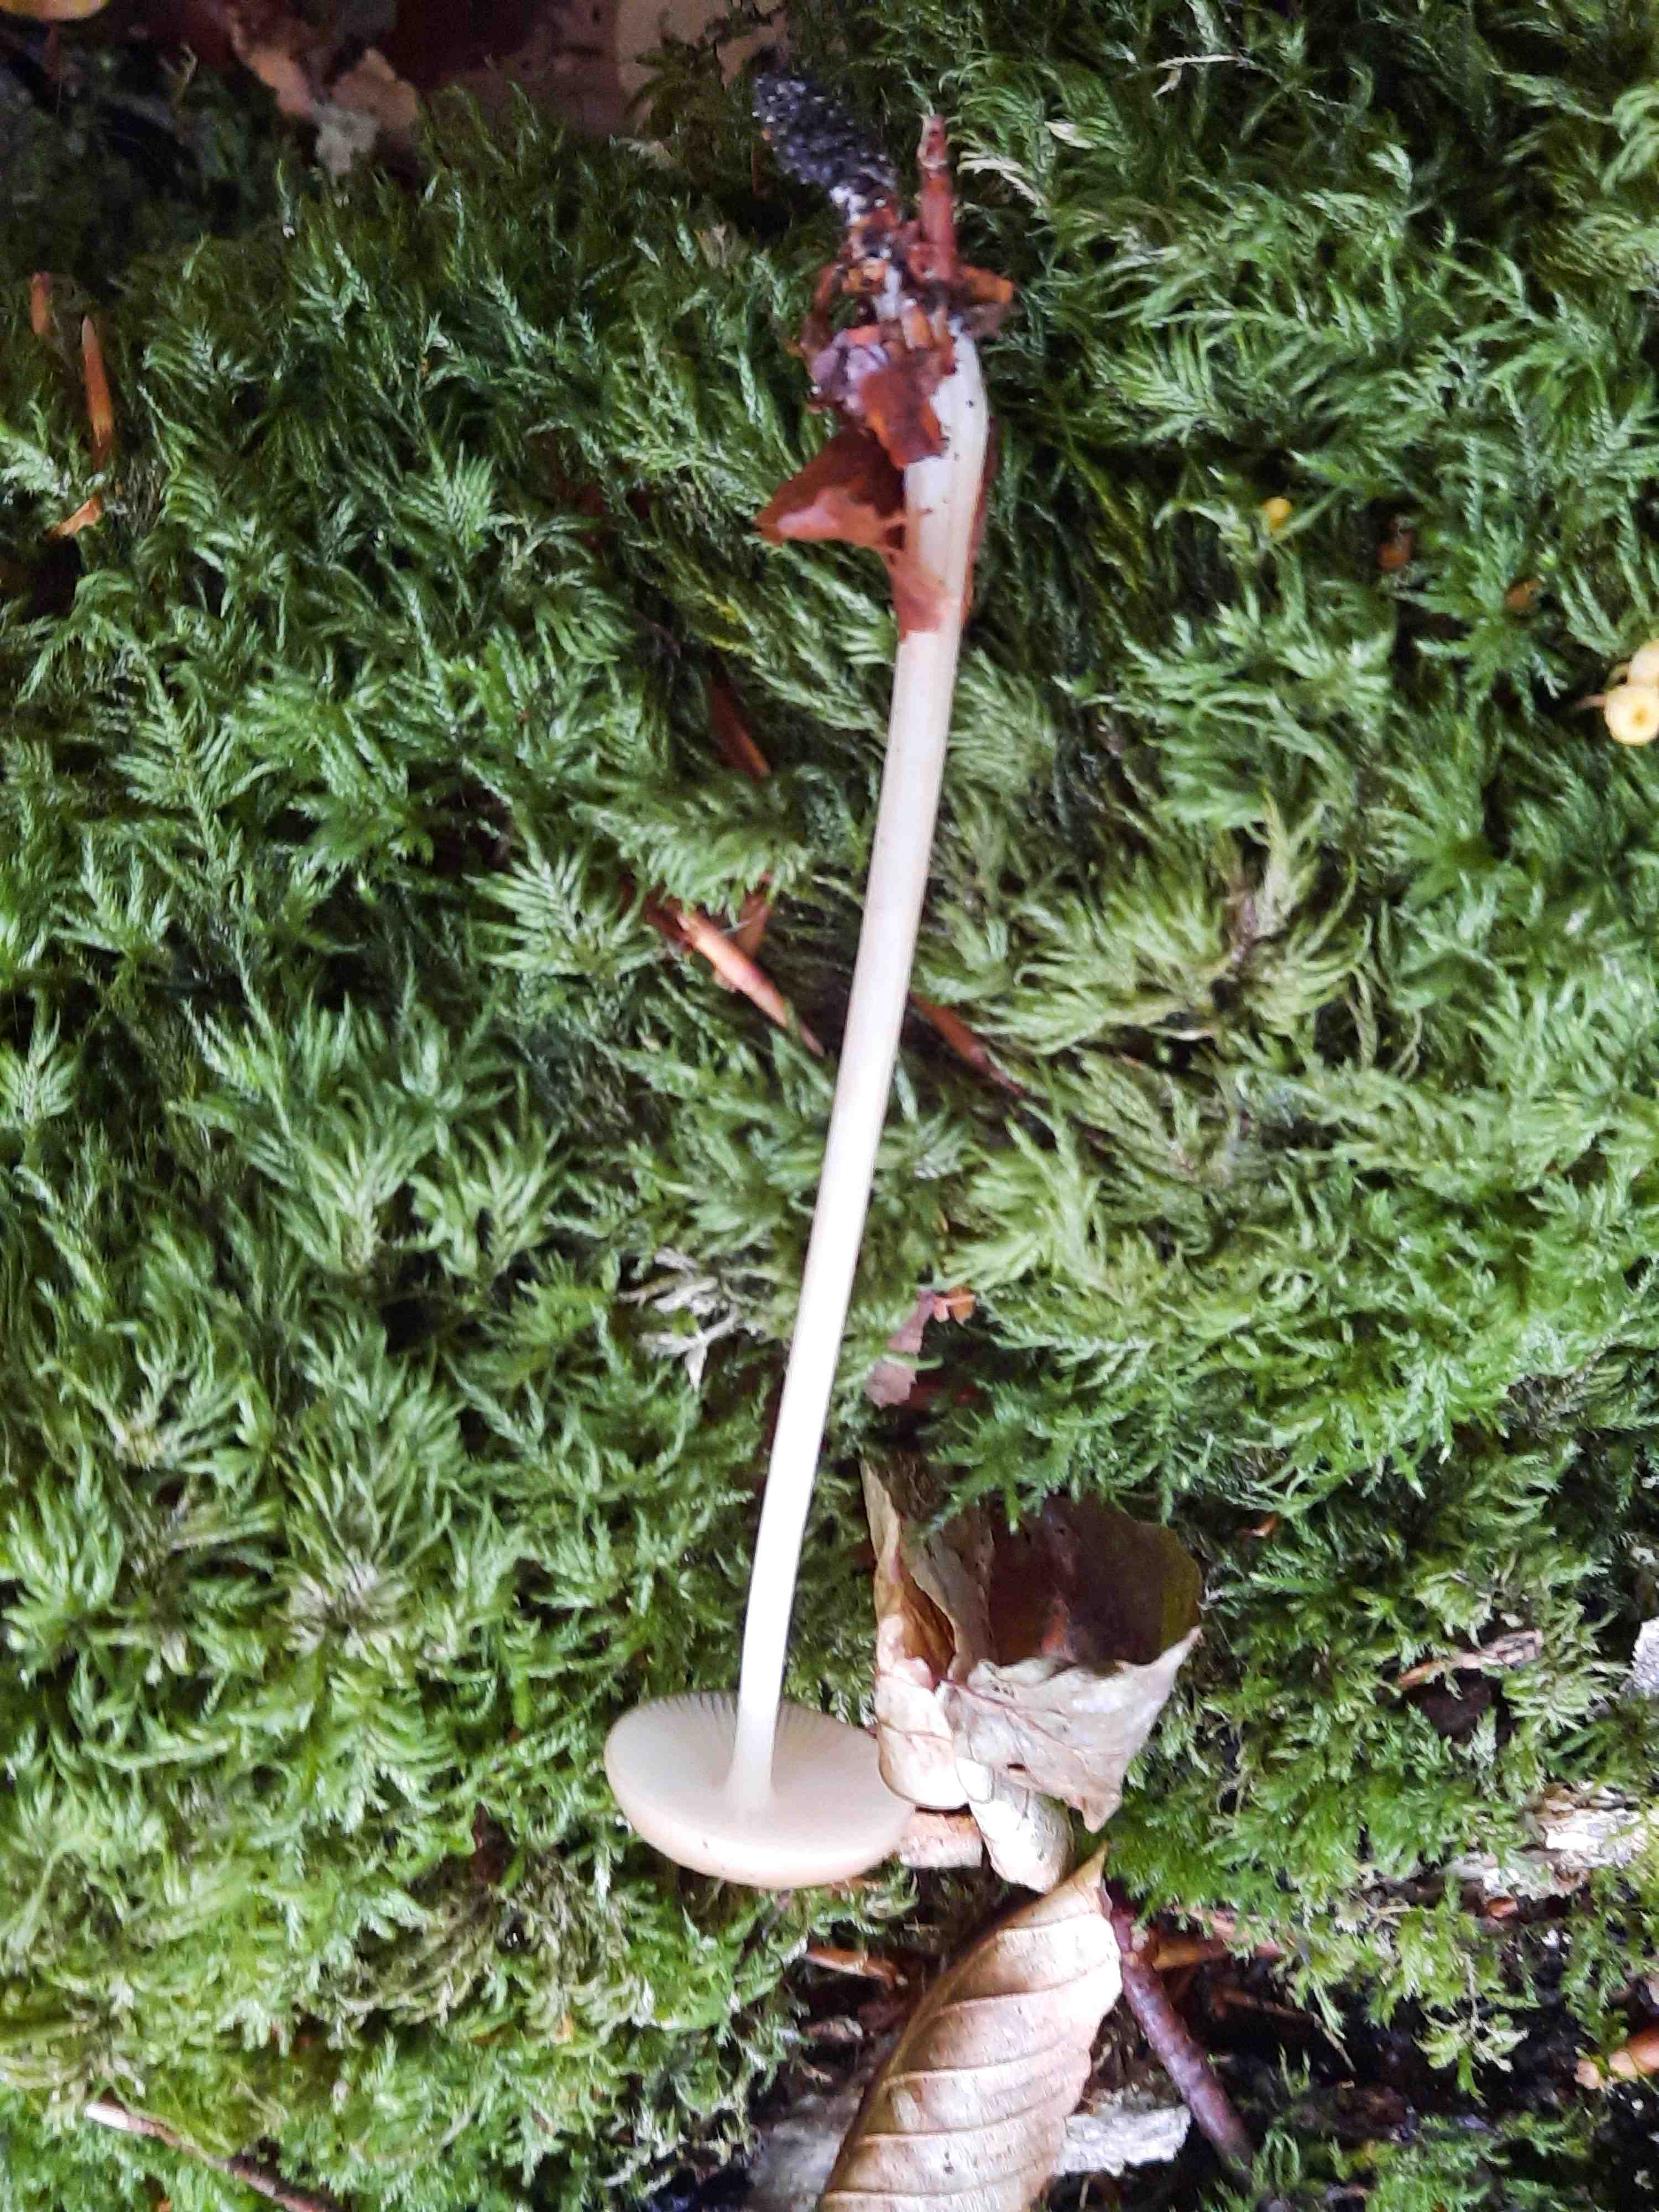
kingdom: Fungi
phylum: Basidiomycota
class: Agaricomycetes
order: Agaricales
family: Physalacriaceae
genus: Hymenopellis
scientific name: Hymenopellis radicata
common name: almindelig pælerodshat
